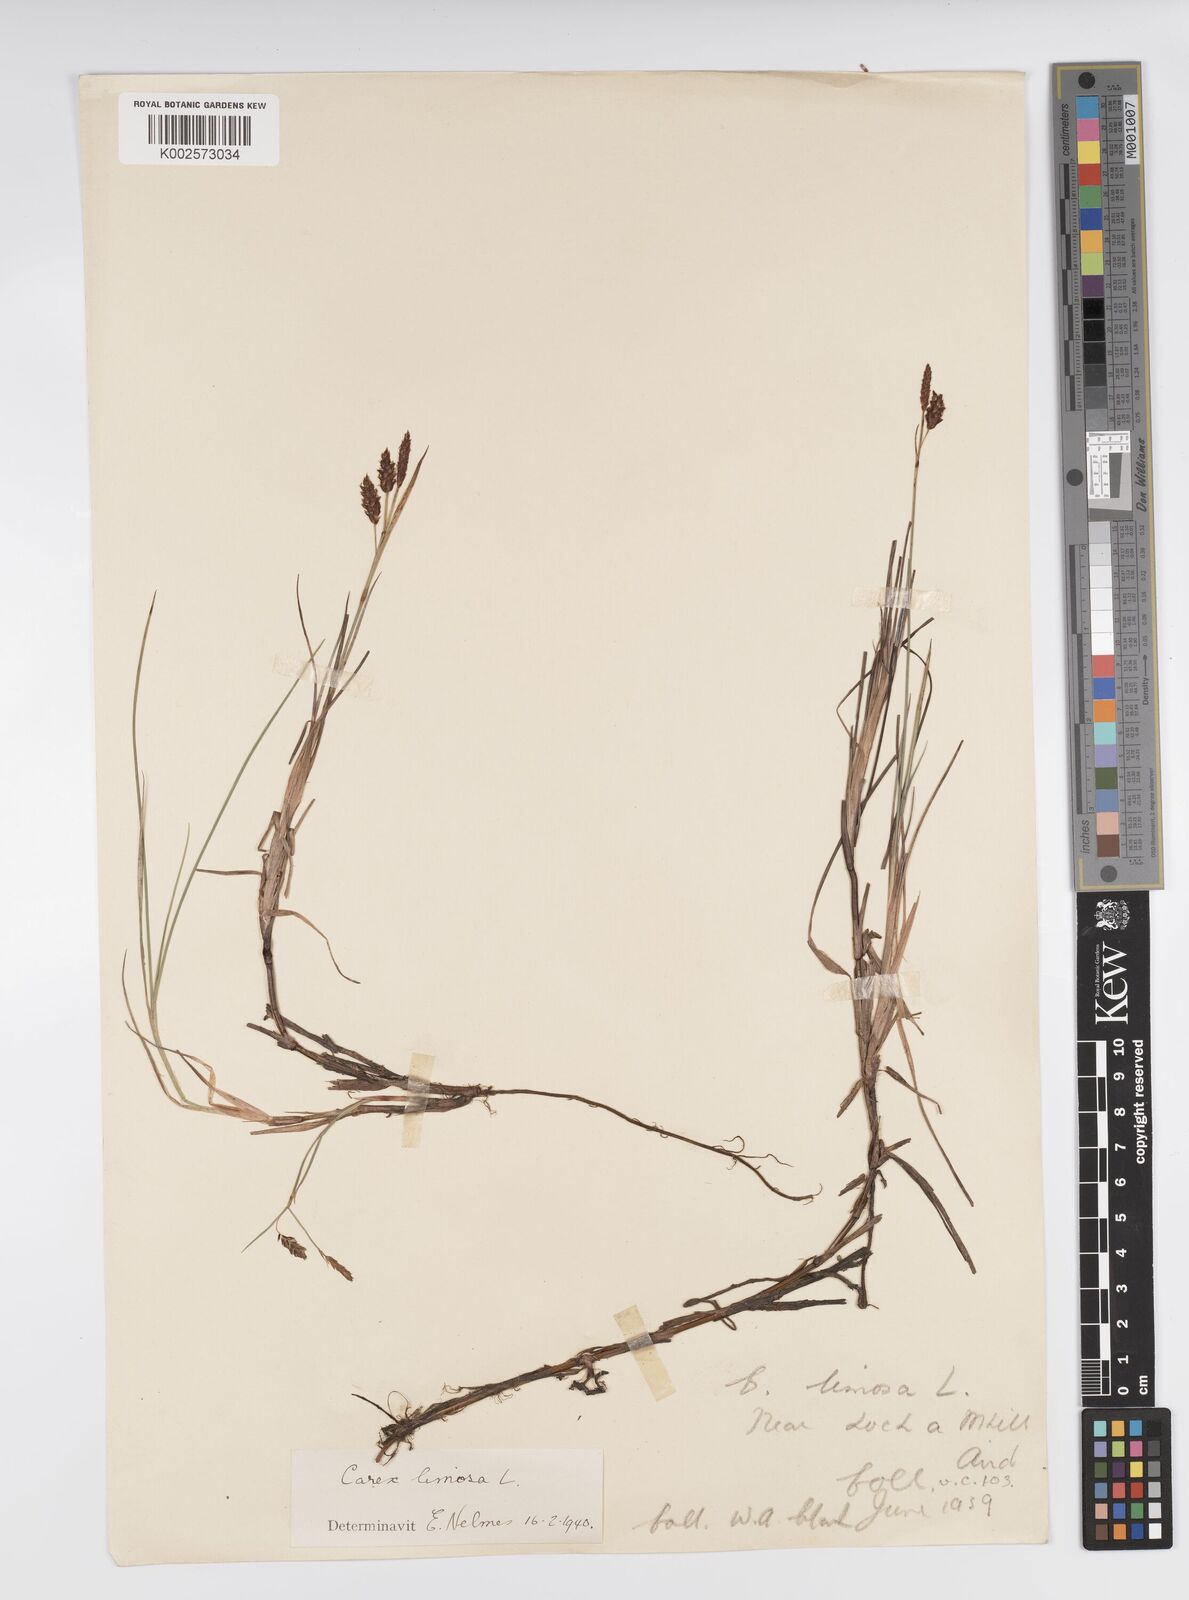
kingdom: Plantae
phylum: Tracheophyta
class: Liliopsida
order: Poales
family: Cyperaceae
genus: Carex
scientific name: Carex limosa
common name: Bog sedge
